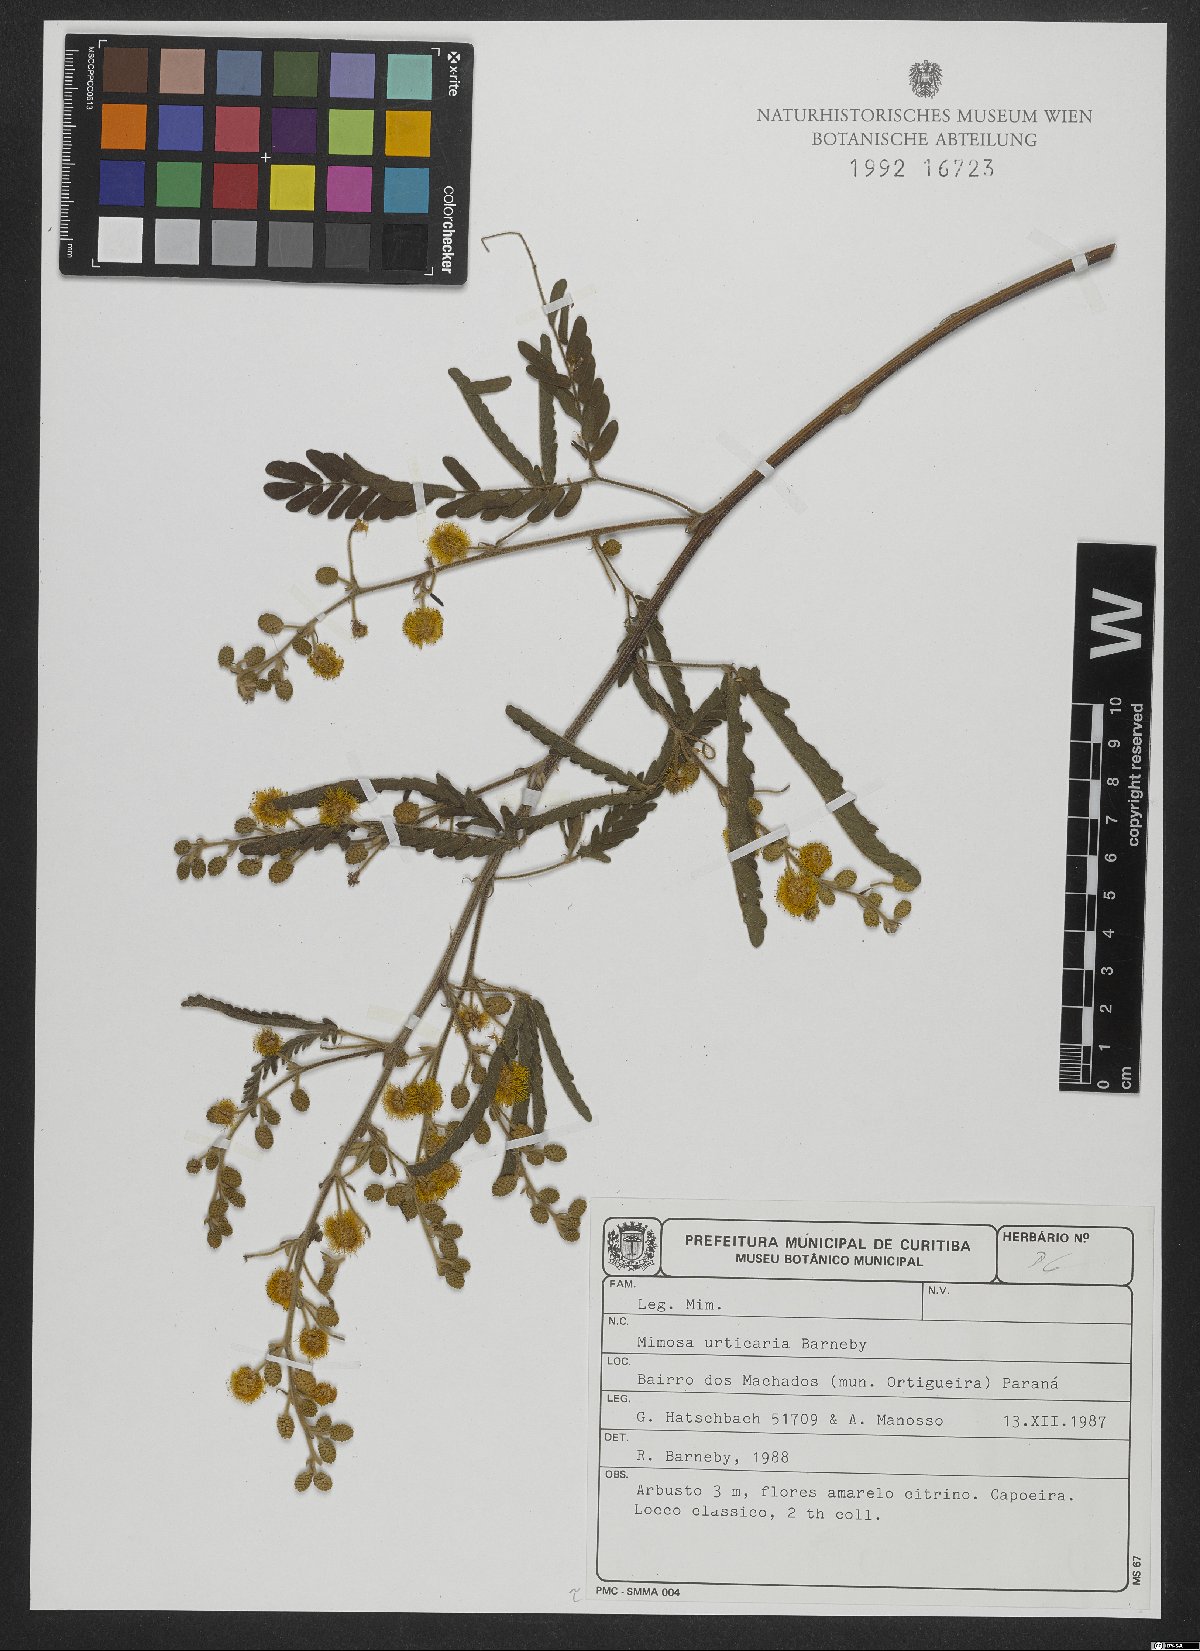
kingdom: Plantae
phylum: Tracheophyta
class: Magnoliopsida
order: Fabales
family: Fabaceae
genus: Mimosa
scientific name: Mimosa urticaria
